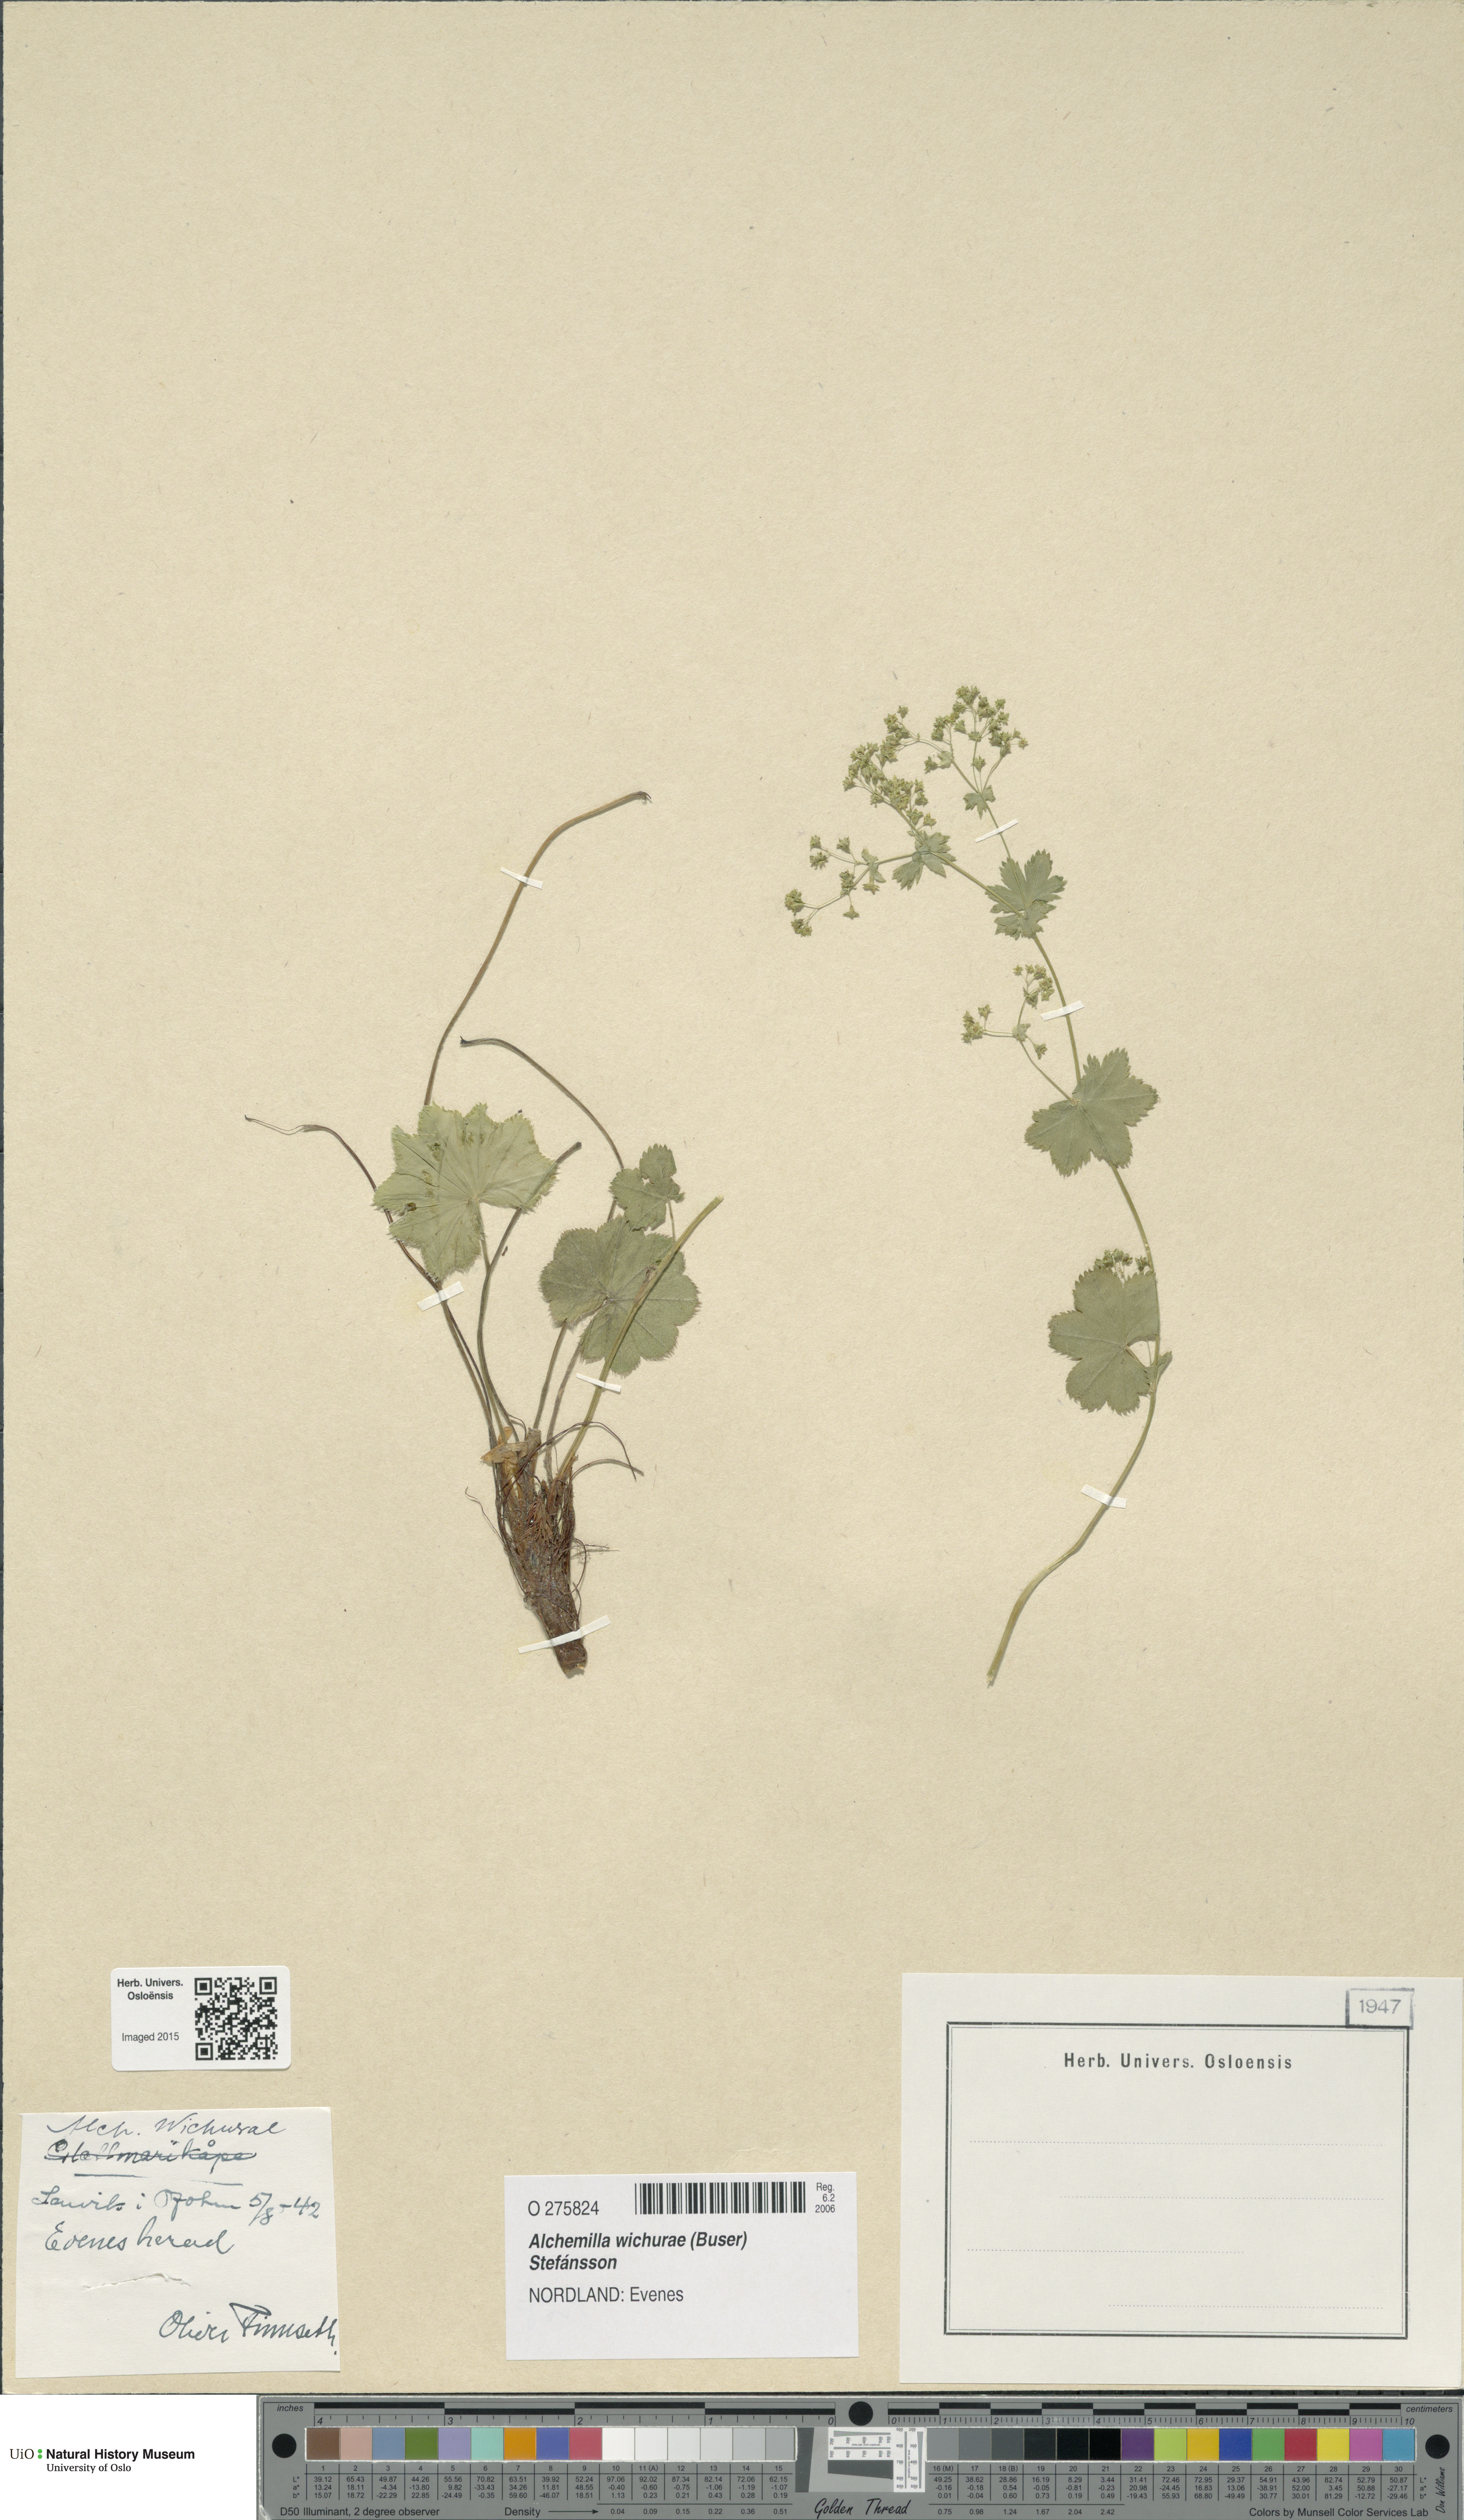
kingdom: Plantae
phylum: Tracheophyta
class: Magnoliopsida
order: Rosales
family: Rosaceae
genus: Alchemilla
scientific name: Alchemilla wichurae
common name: Rock lady's mantle
